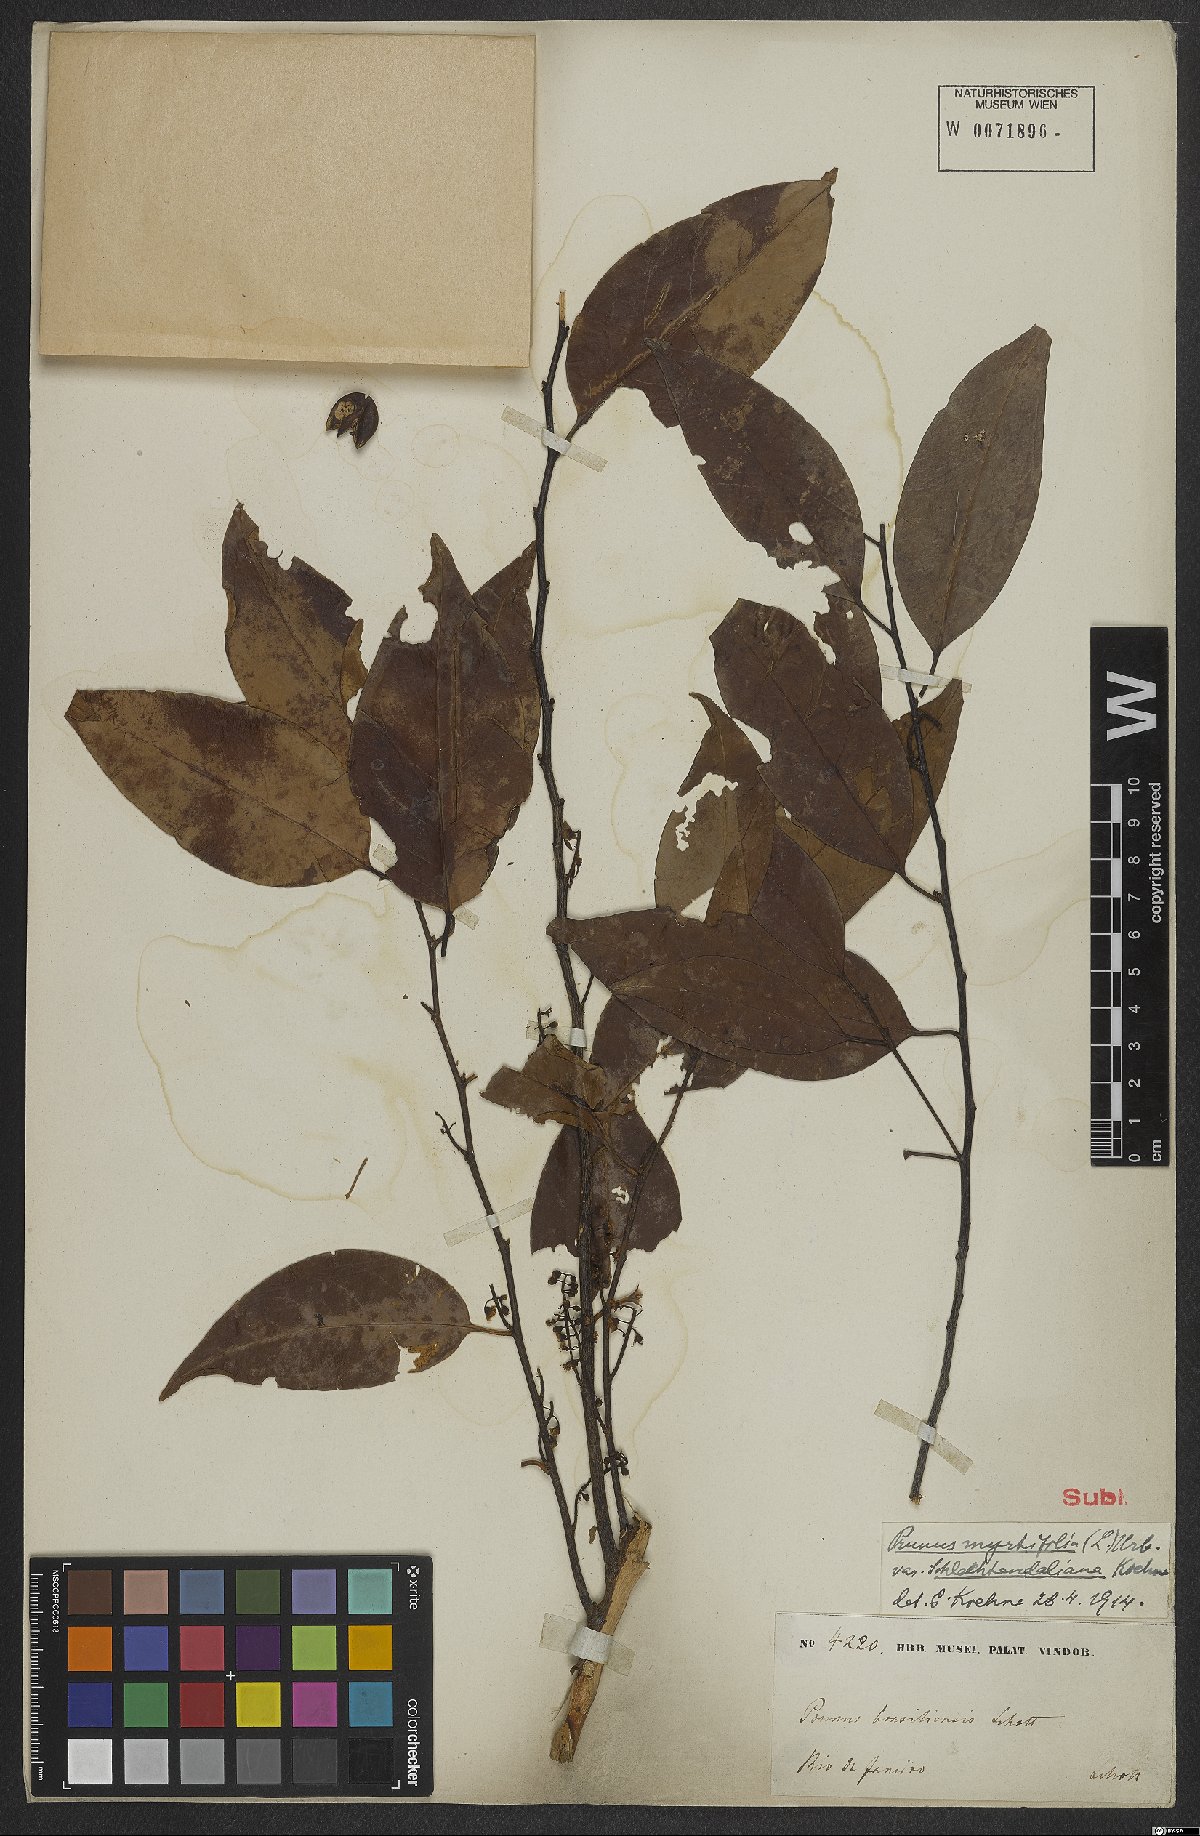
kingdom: Plantae
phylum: Tracheophyta
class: Magnoliopsida
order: Rosales
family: Rosaceae
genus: Prunus
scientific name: Prunus myrtifolia
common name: West indies cherry
